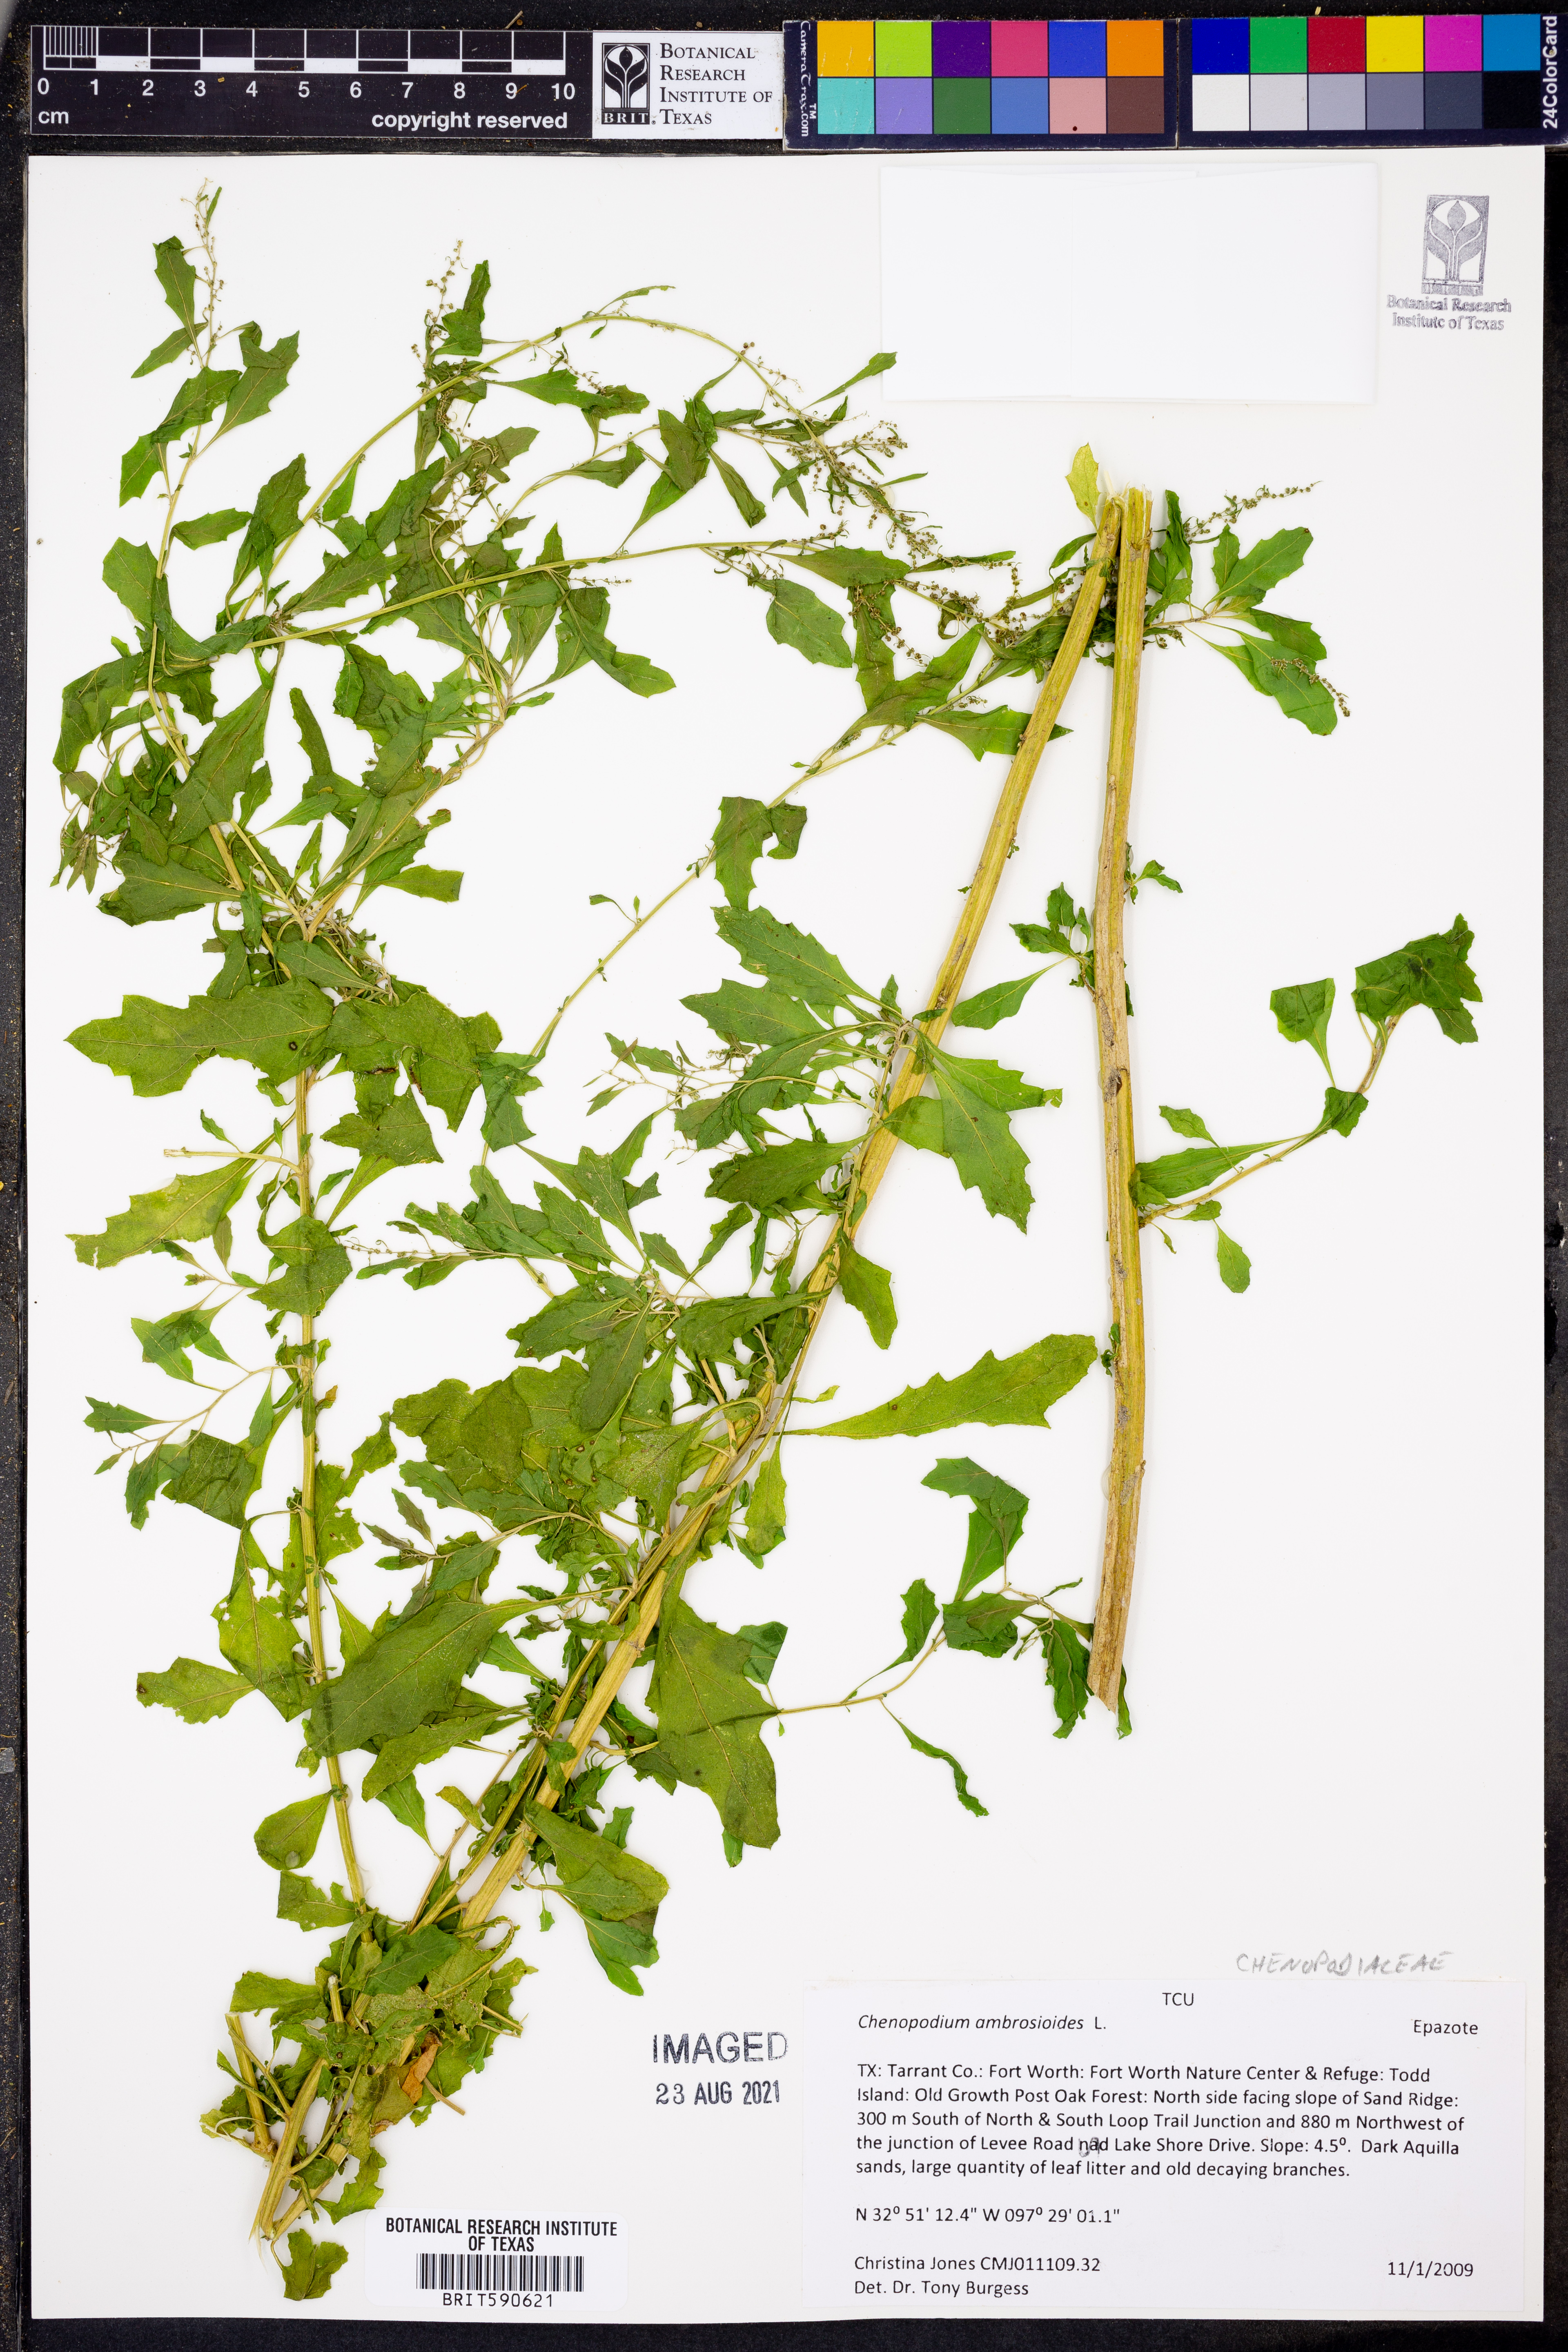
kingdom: Plantae
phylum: Tracheophyta
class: Magnoliopsida
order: Caryophyllales
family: Amaranthaceae
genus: Dysphania
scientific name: Dysphania ambrosioides
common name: Wormseed
